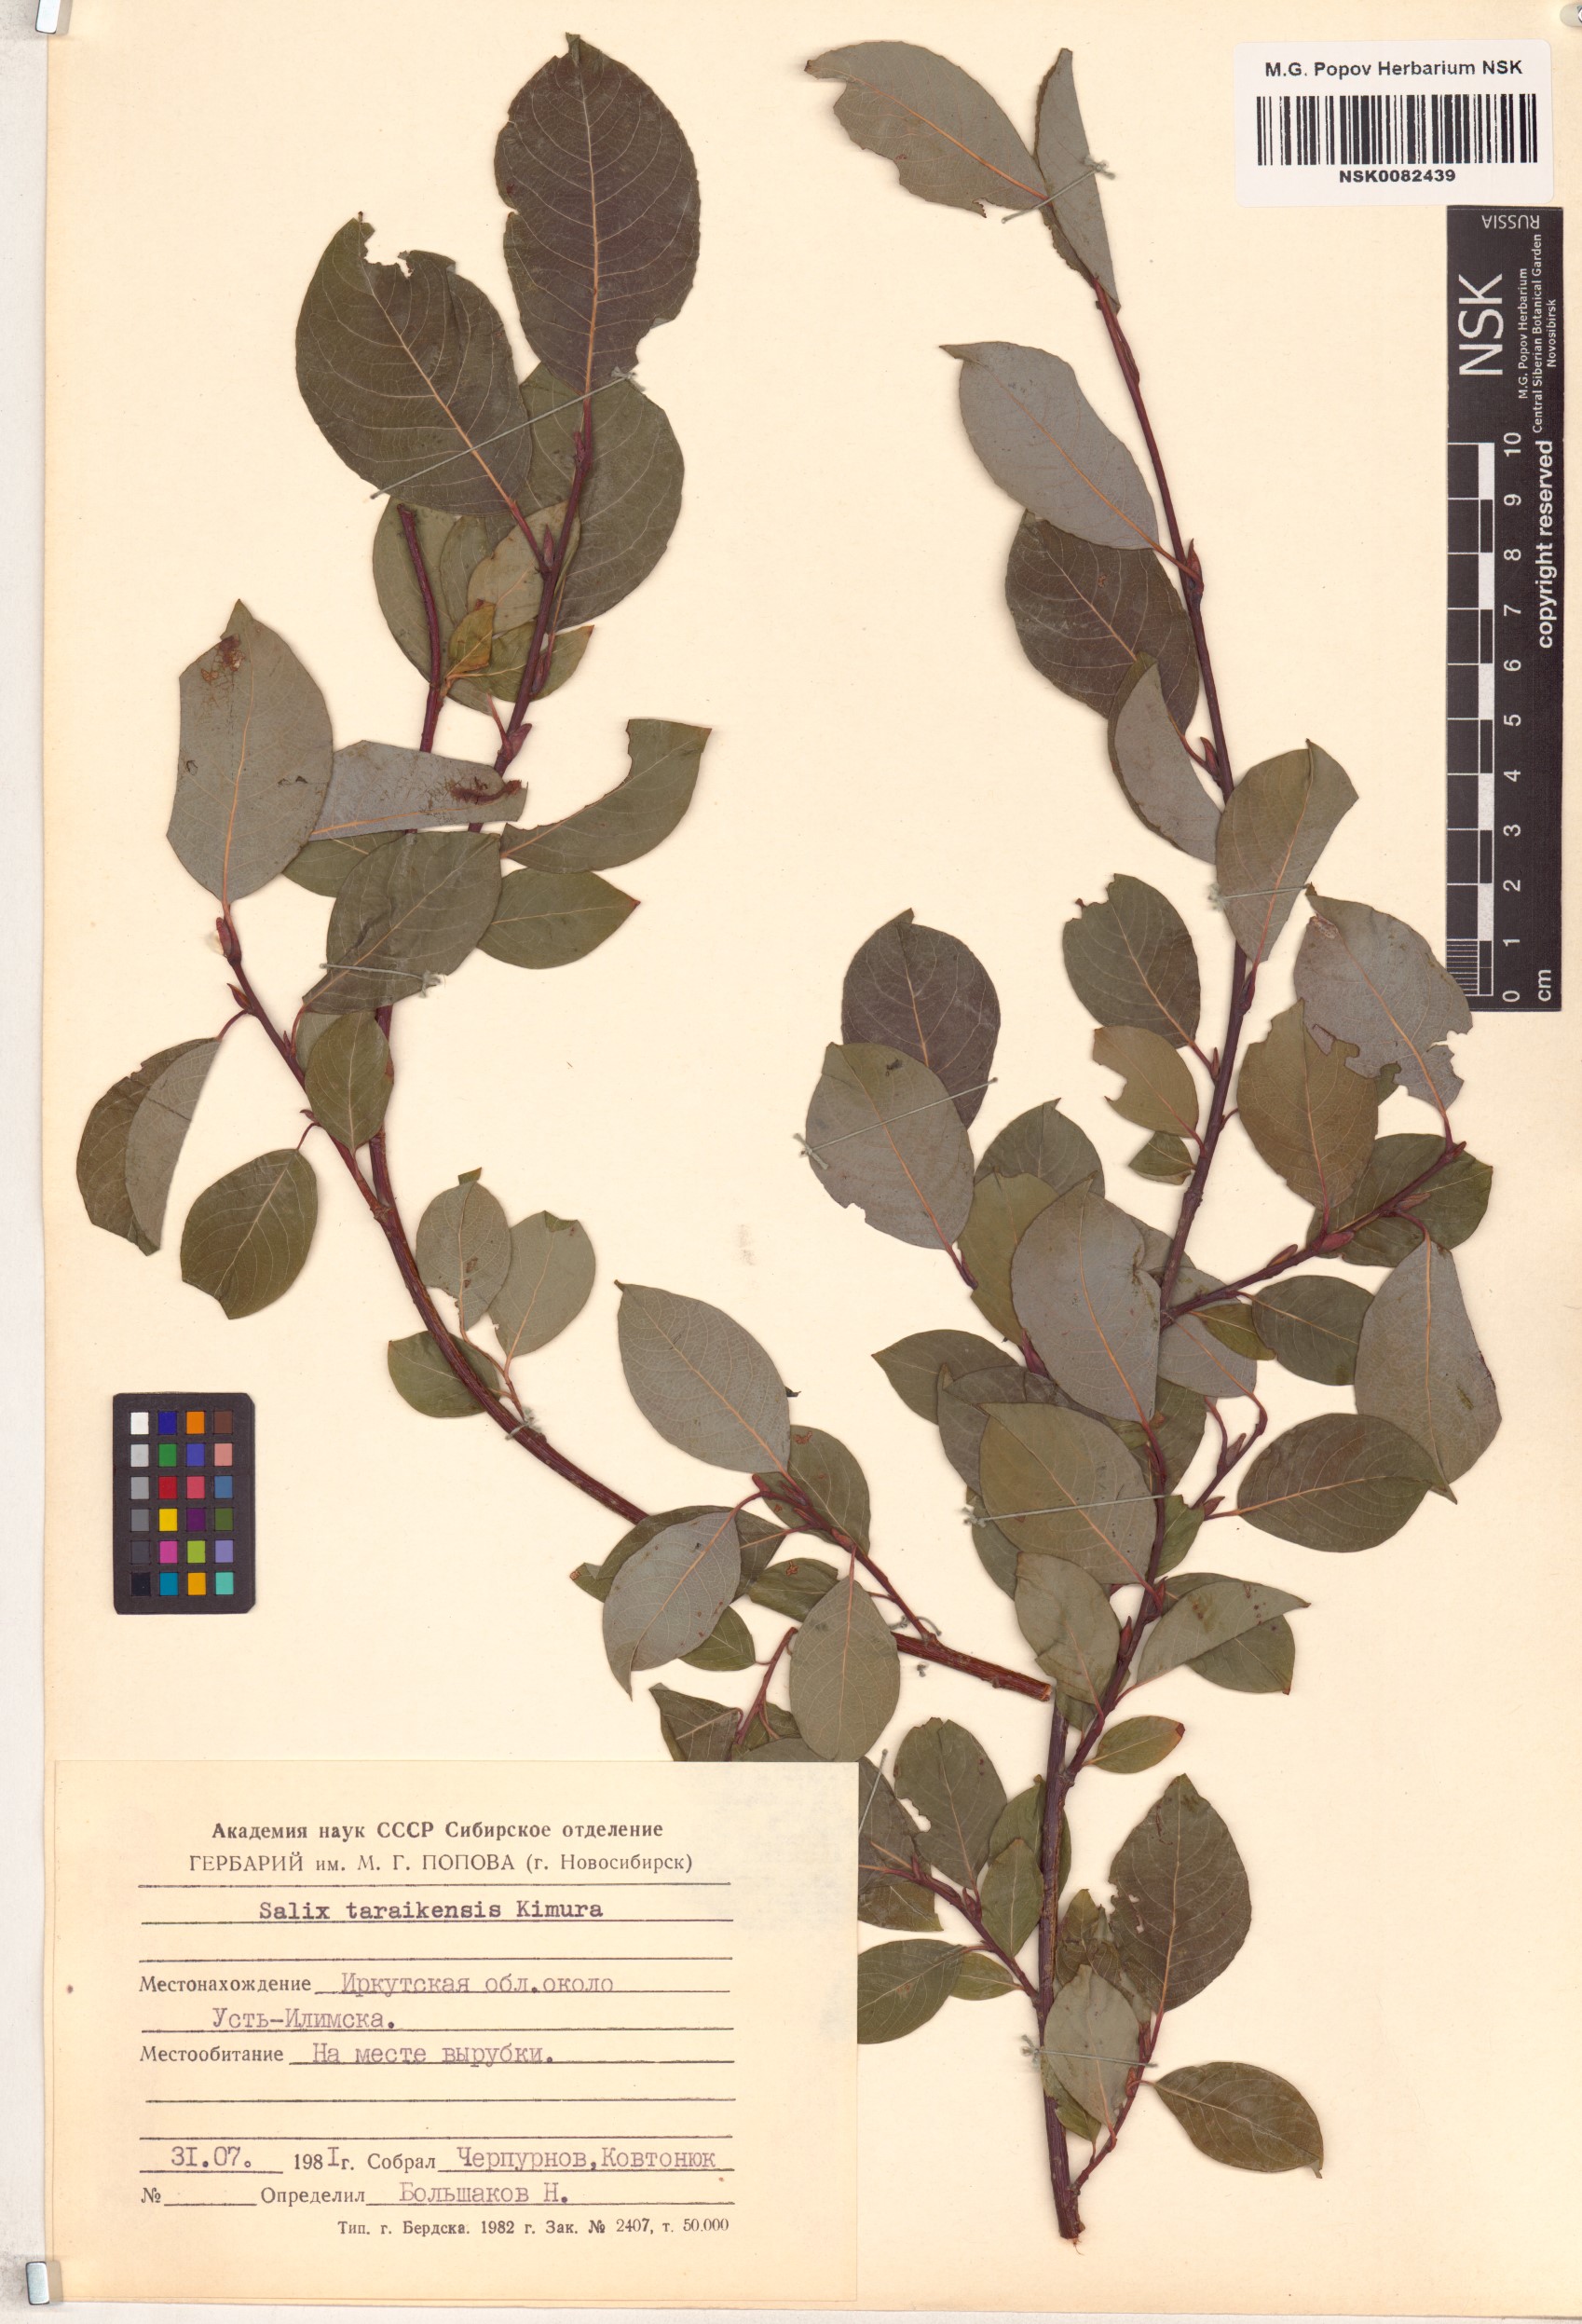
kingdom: Plantae
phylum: Tracheophyta
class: Magnoliopsida
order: Malpighiales
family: Salicaceae
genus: Salix
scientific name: Salix taraikensis
